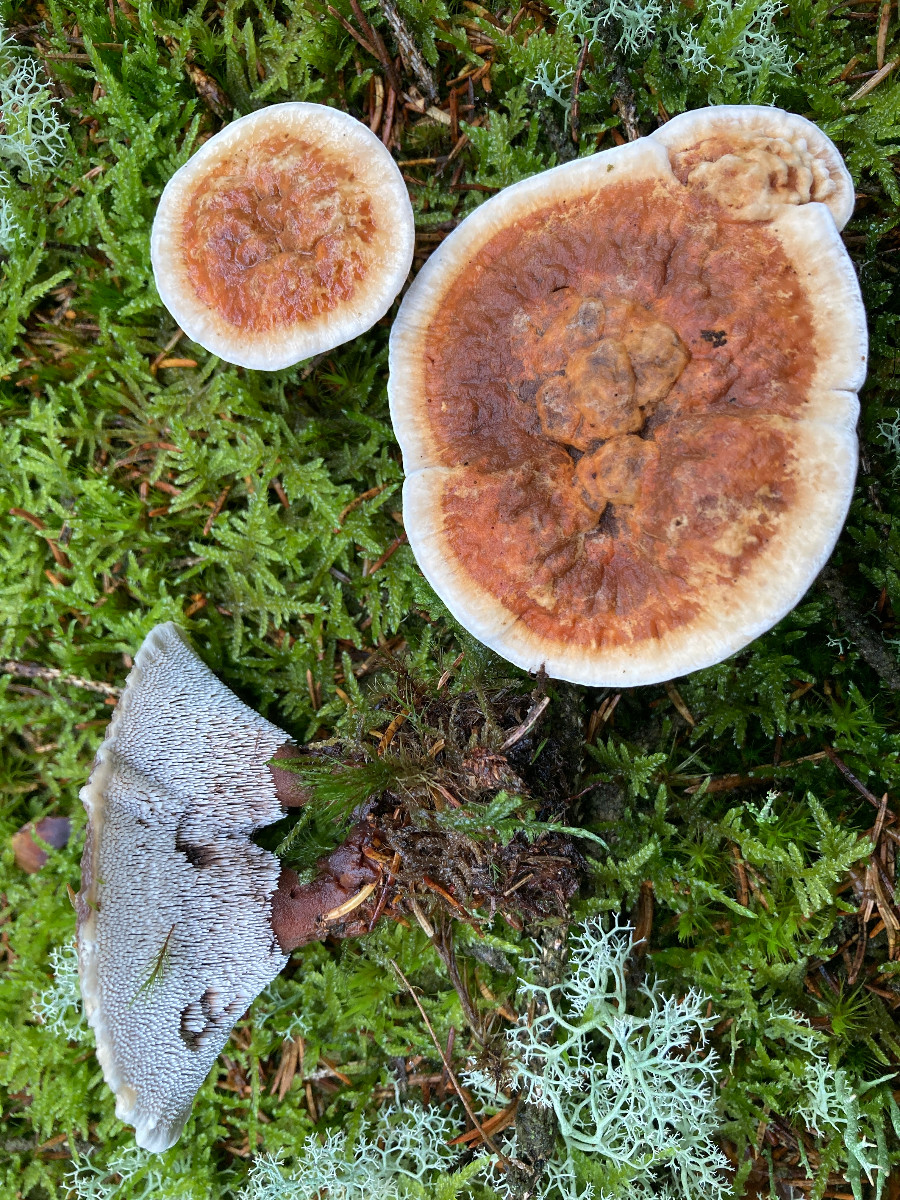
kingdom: Fungi
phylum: Basidiomycota
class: Agaricomycetes
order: Thelephorales
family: Bankeraceae
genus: Hydnellum
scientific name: Hydnellum aurantiacum
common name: orange korkpigsvamp
